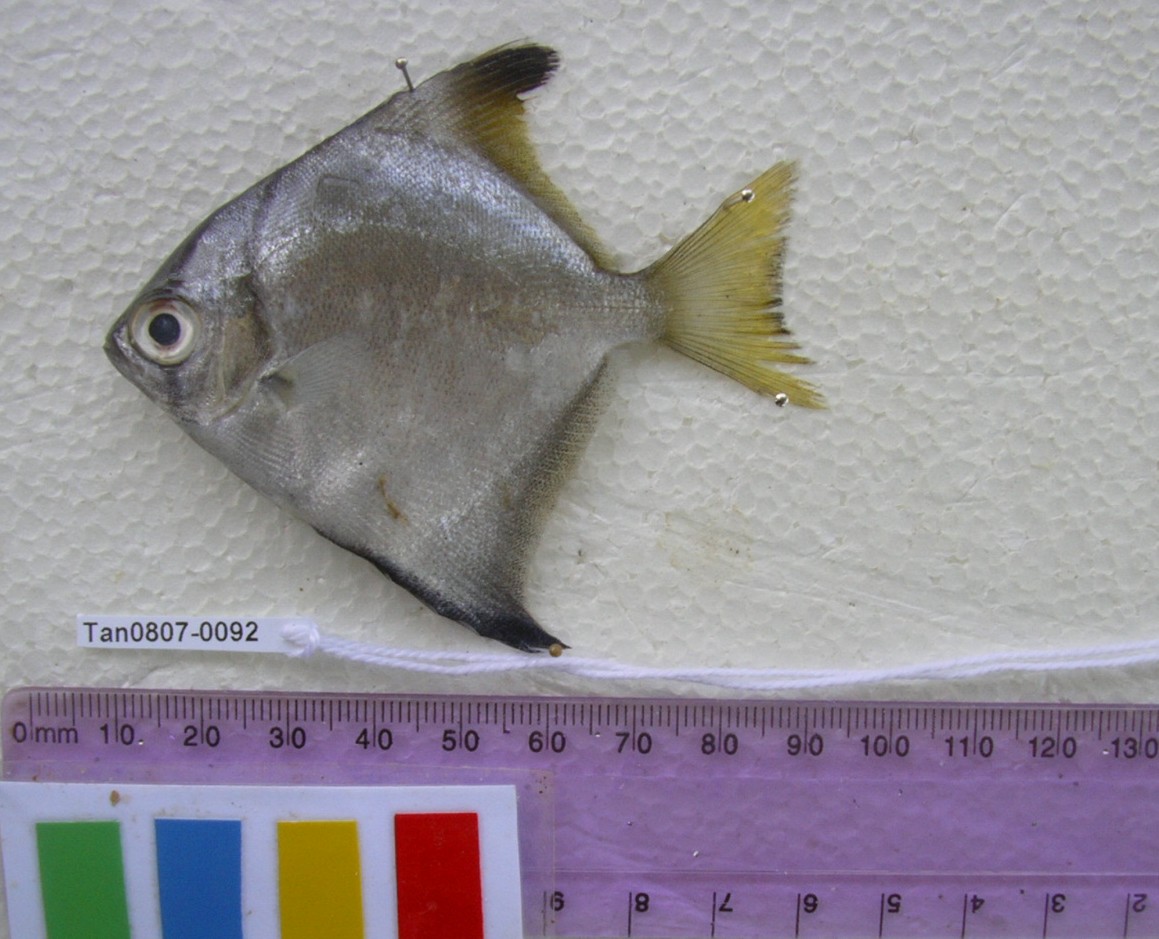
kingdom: Animalia
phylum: Chordata
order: Perciformes
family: Monodactylidae
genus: Monodactylus
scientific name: Monodactylus argenteus
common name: Silver moony
